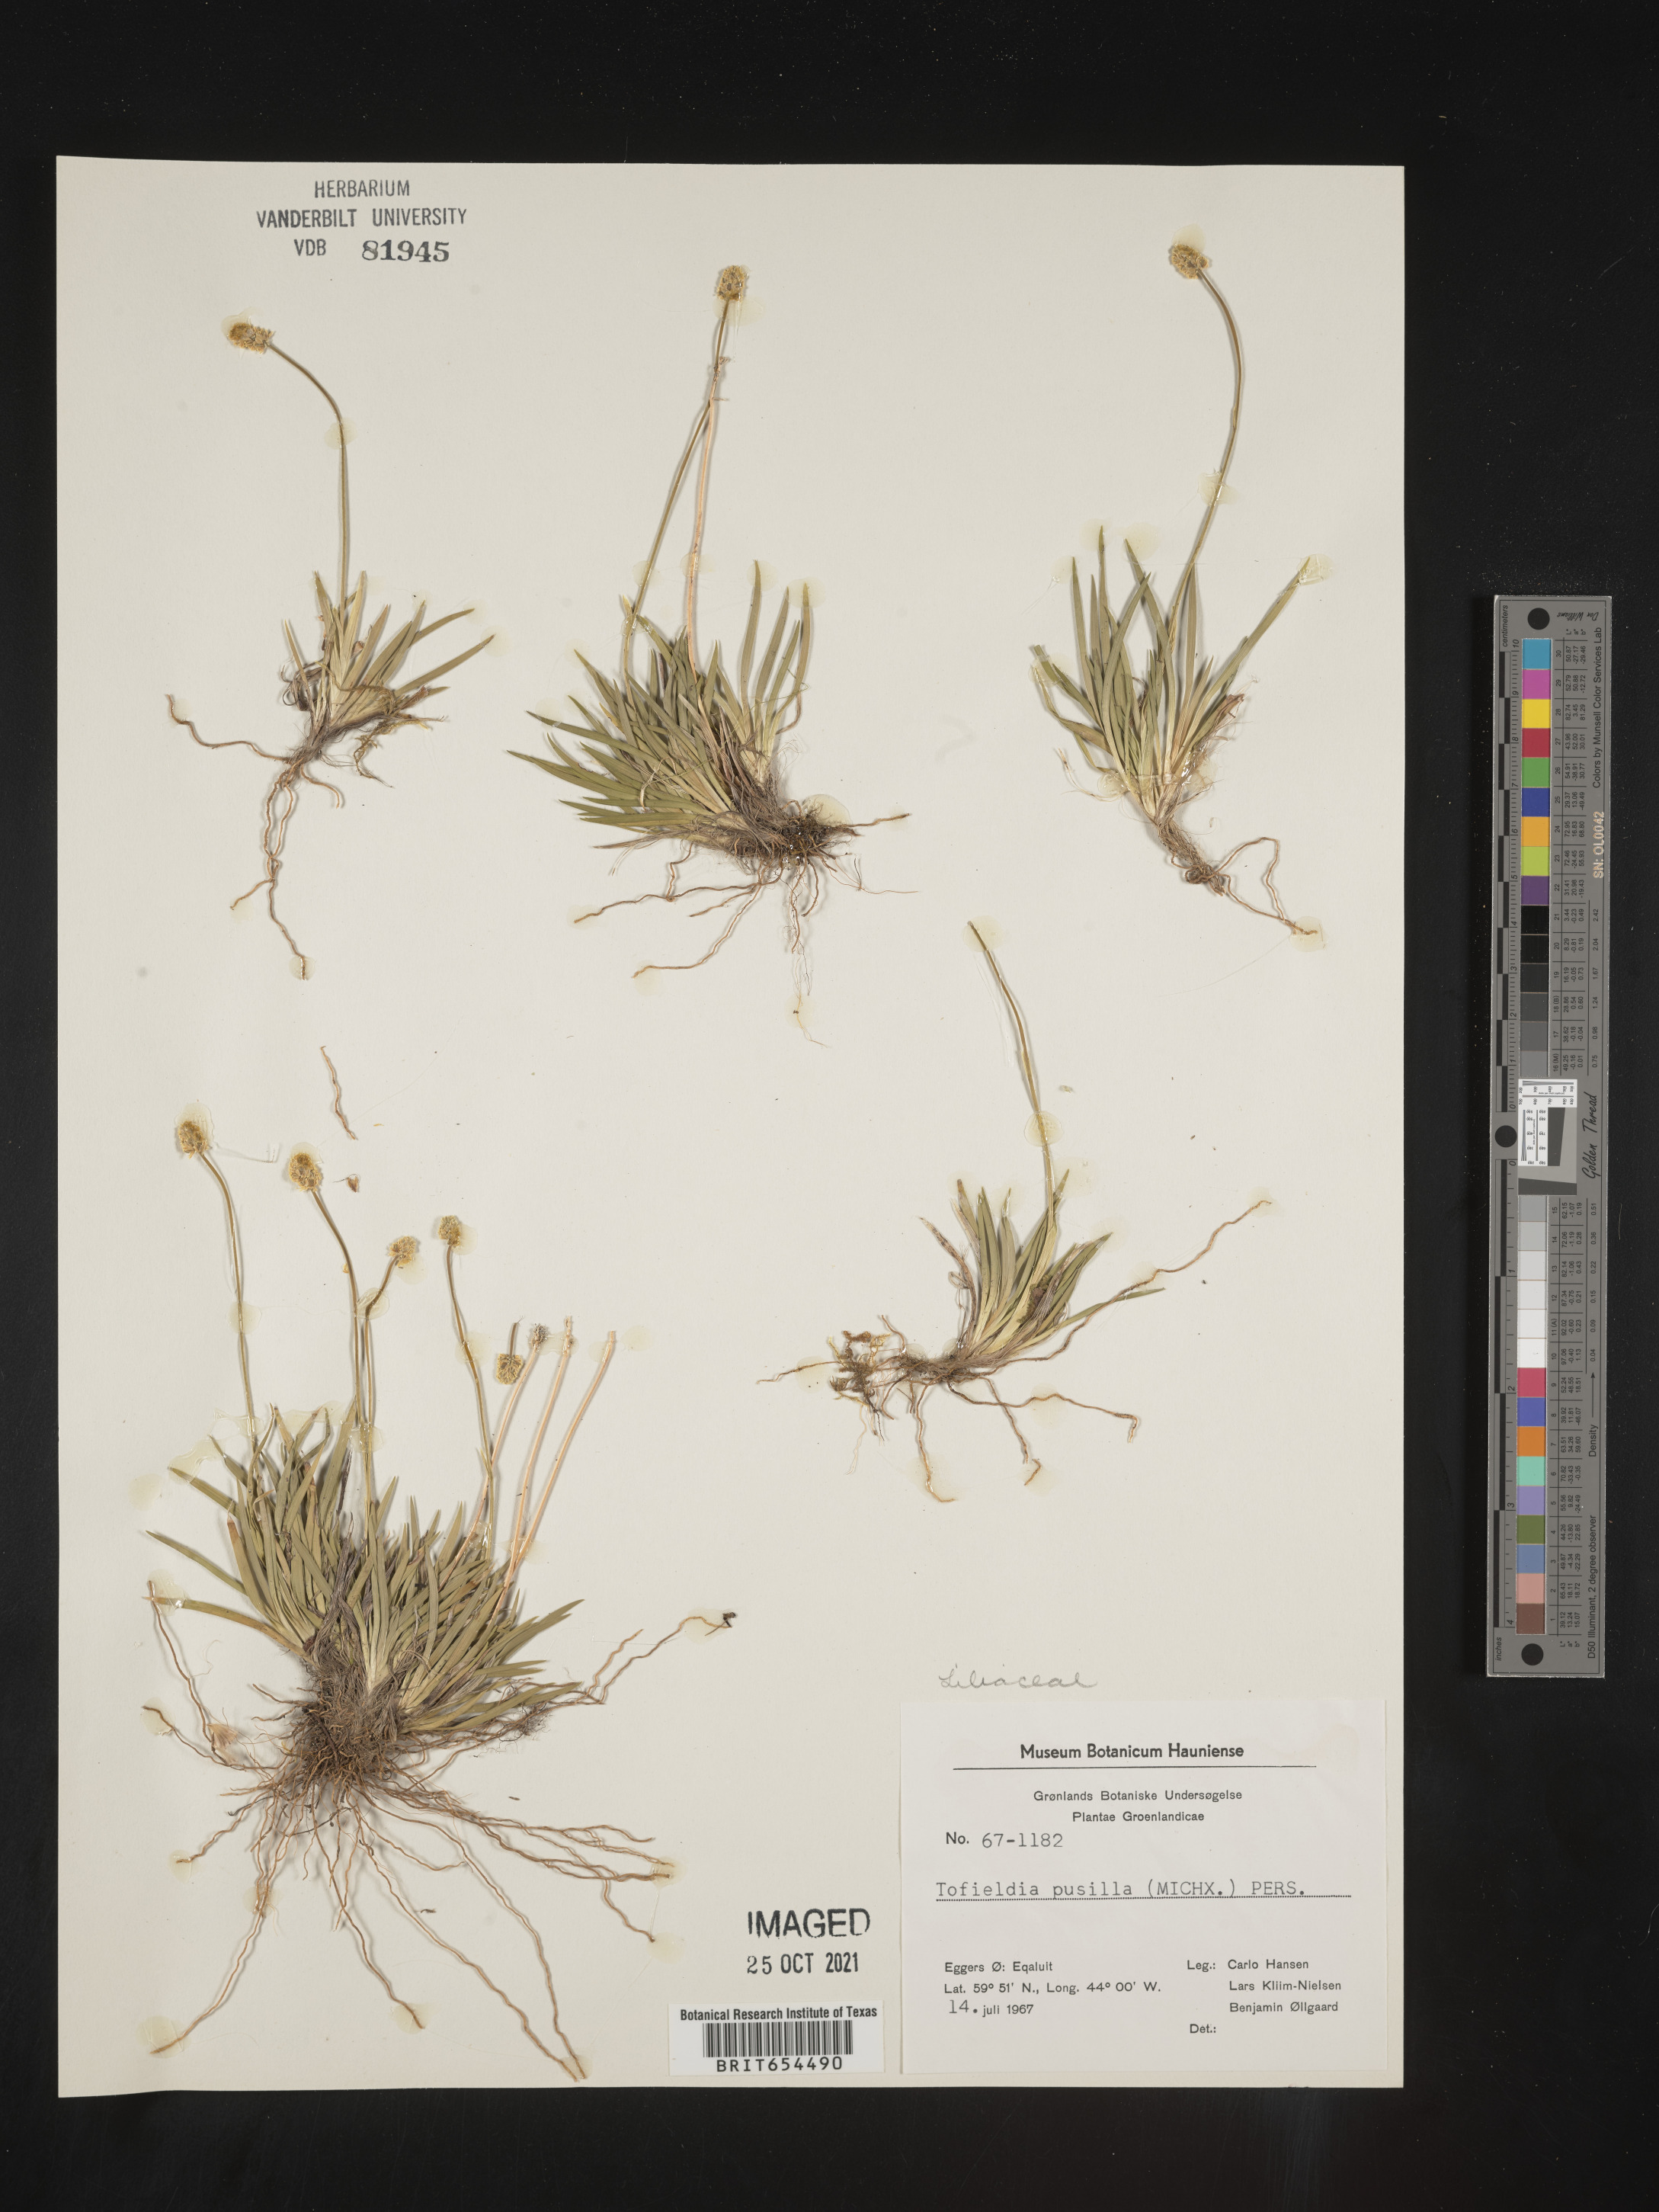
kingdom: Plantae
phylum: Tracheophyta
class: Liliopsida
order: Alismatales
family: Tofieldiaceae
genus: Tofieldia
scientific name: Tofieldia
